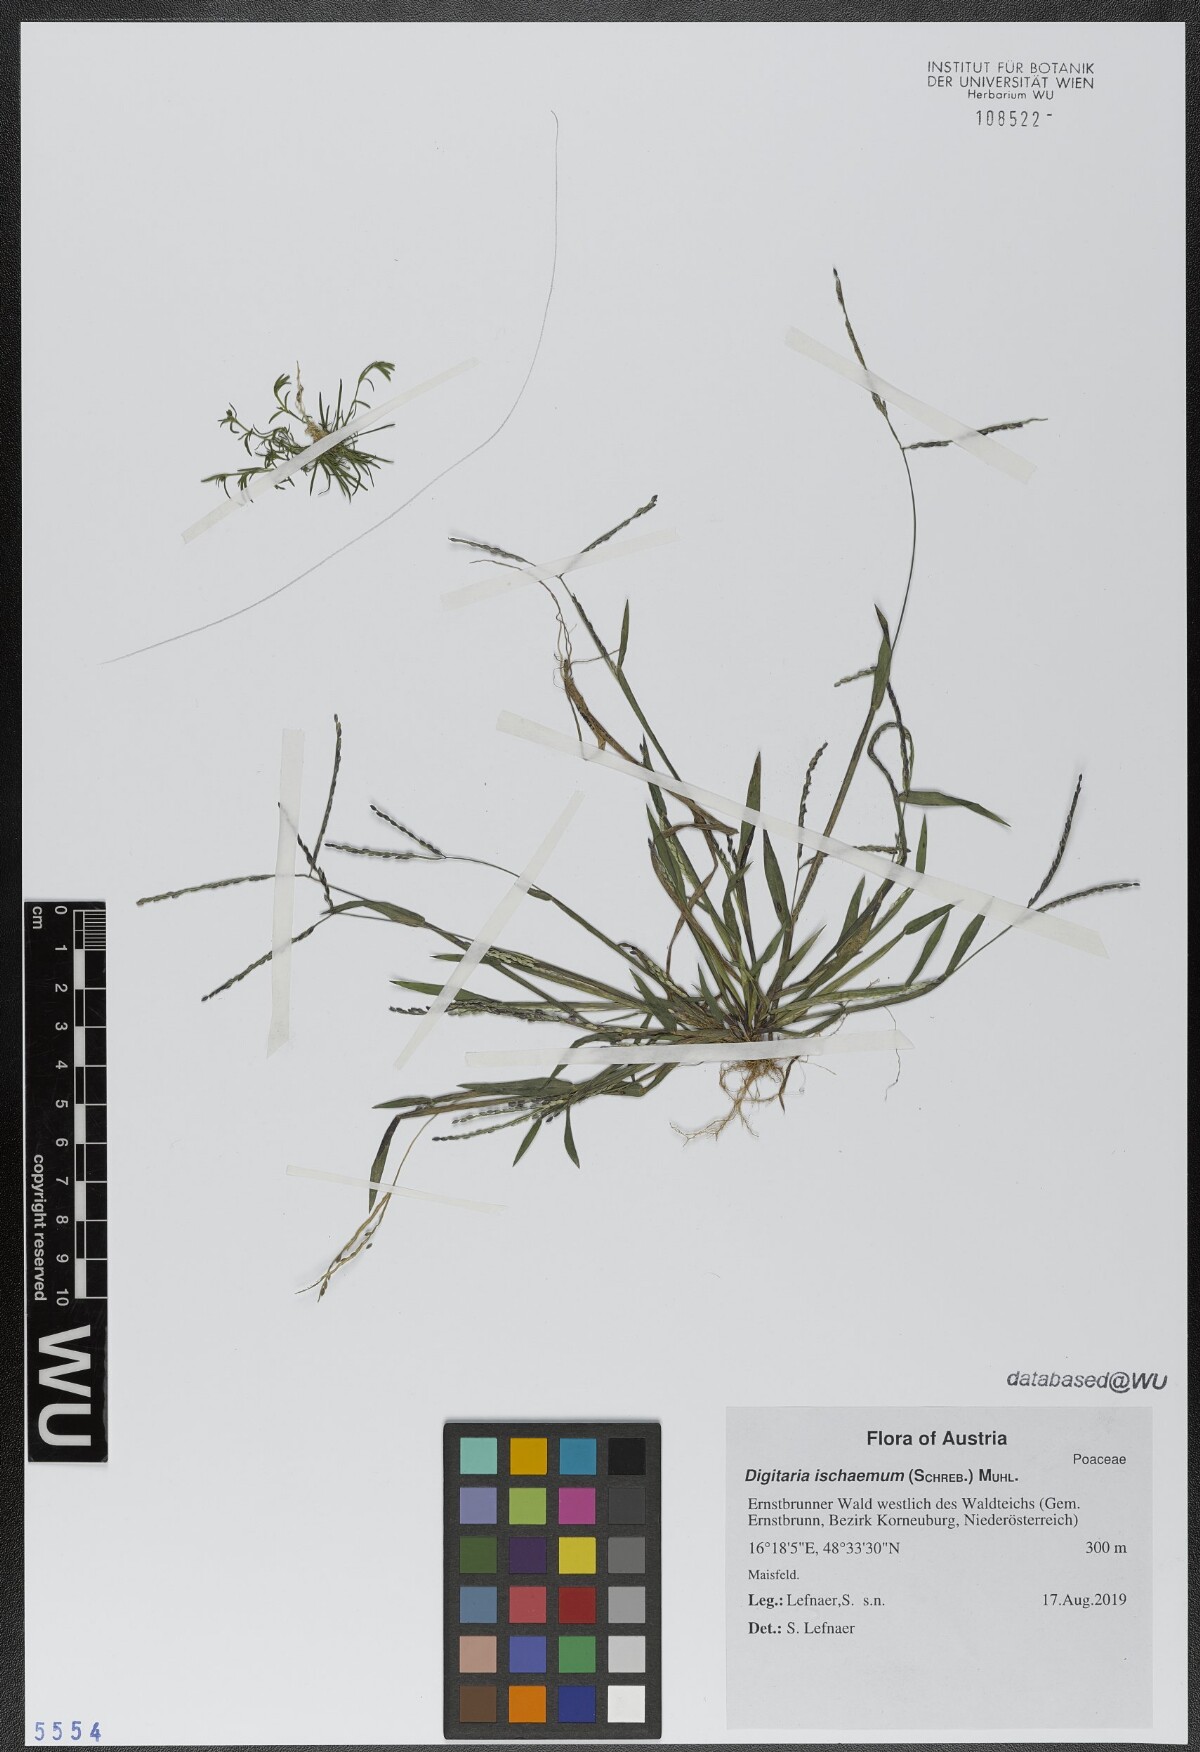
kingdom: Plantae
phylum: Tracheophyta
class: Liliopsida
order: Poales
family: Poaceae
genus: Digitaria
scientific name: Digitaria ischaemum
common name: Smooth crabgrass
